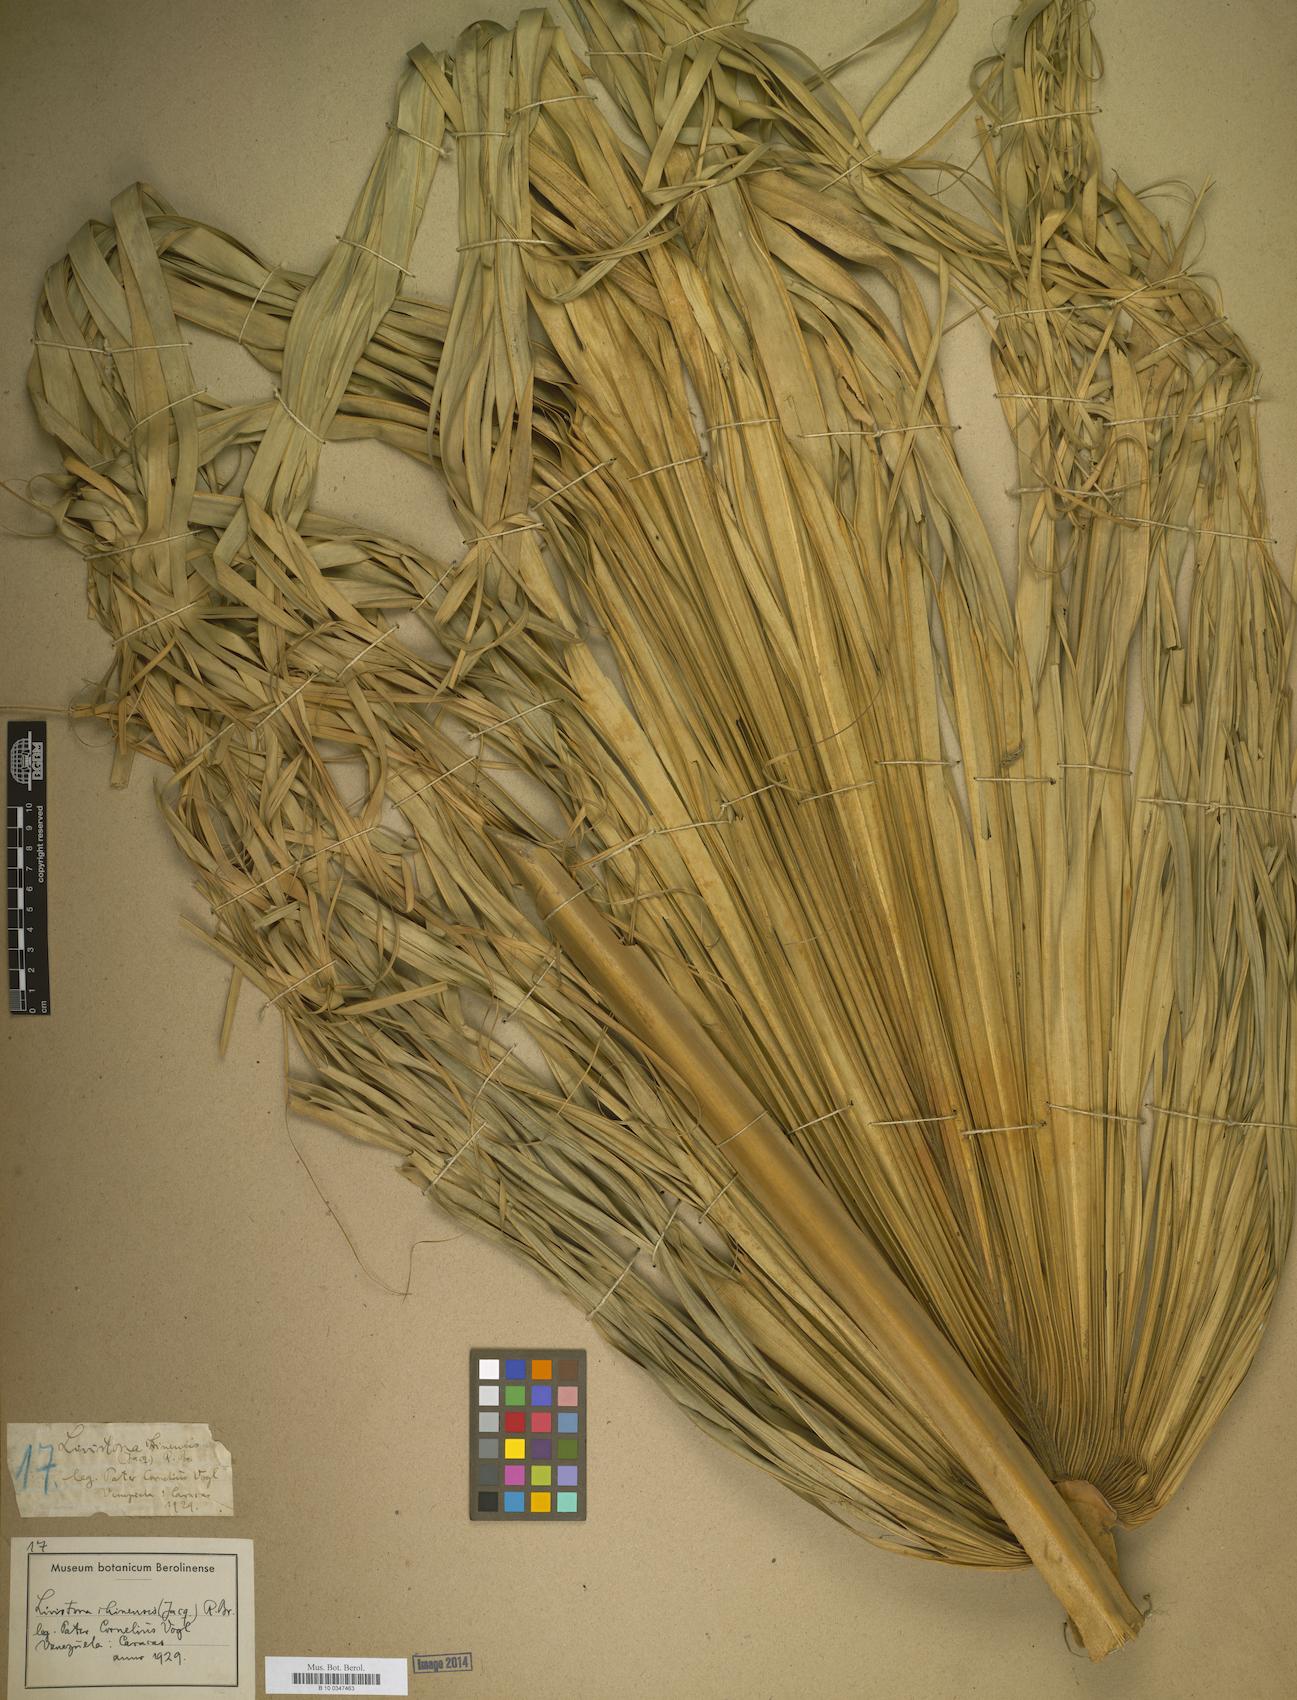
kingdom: Plantae
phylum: Tracheophyta
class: Liliopsida
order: Arecales
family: Arecaceae
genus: Livistona
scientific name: Livistona
